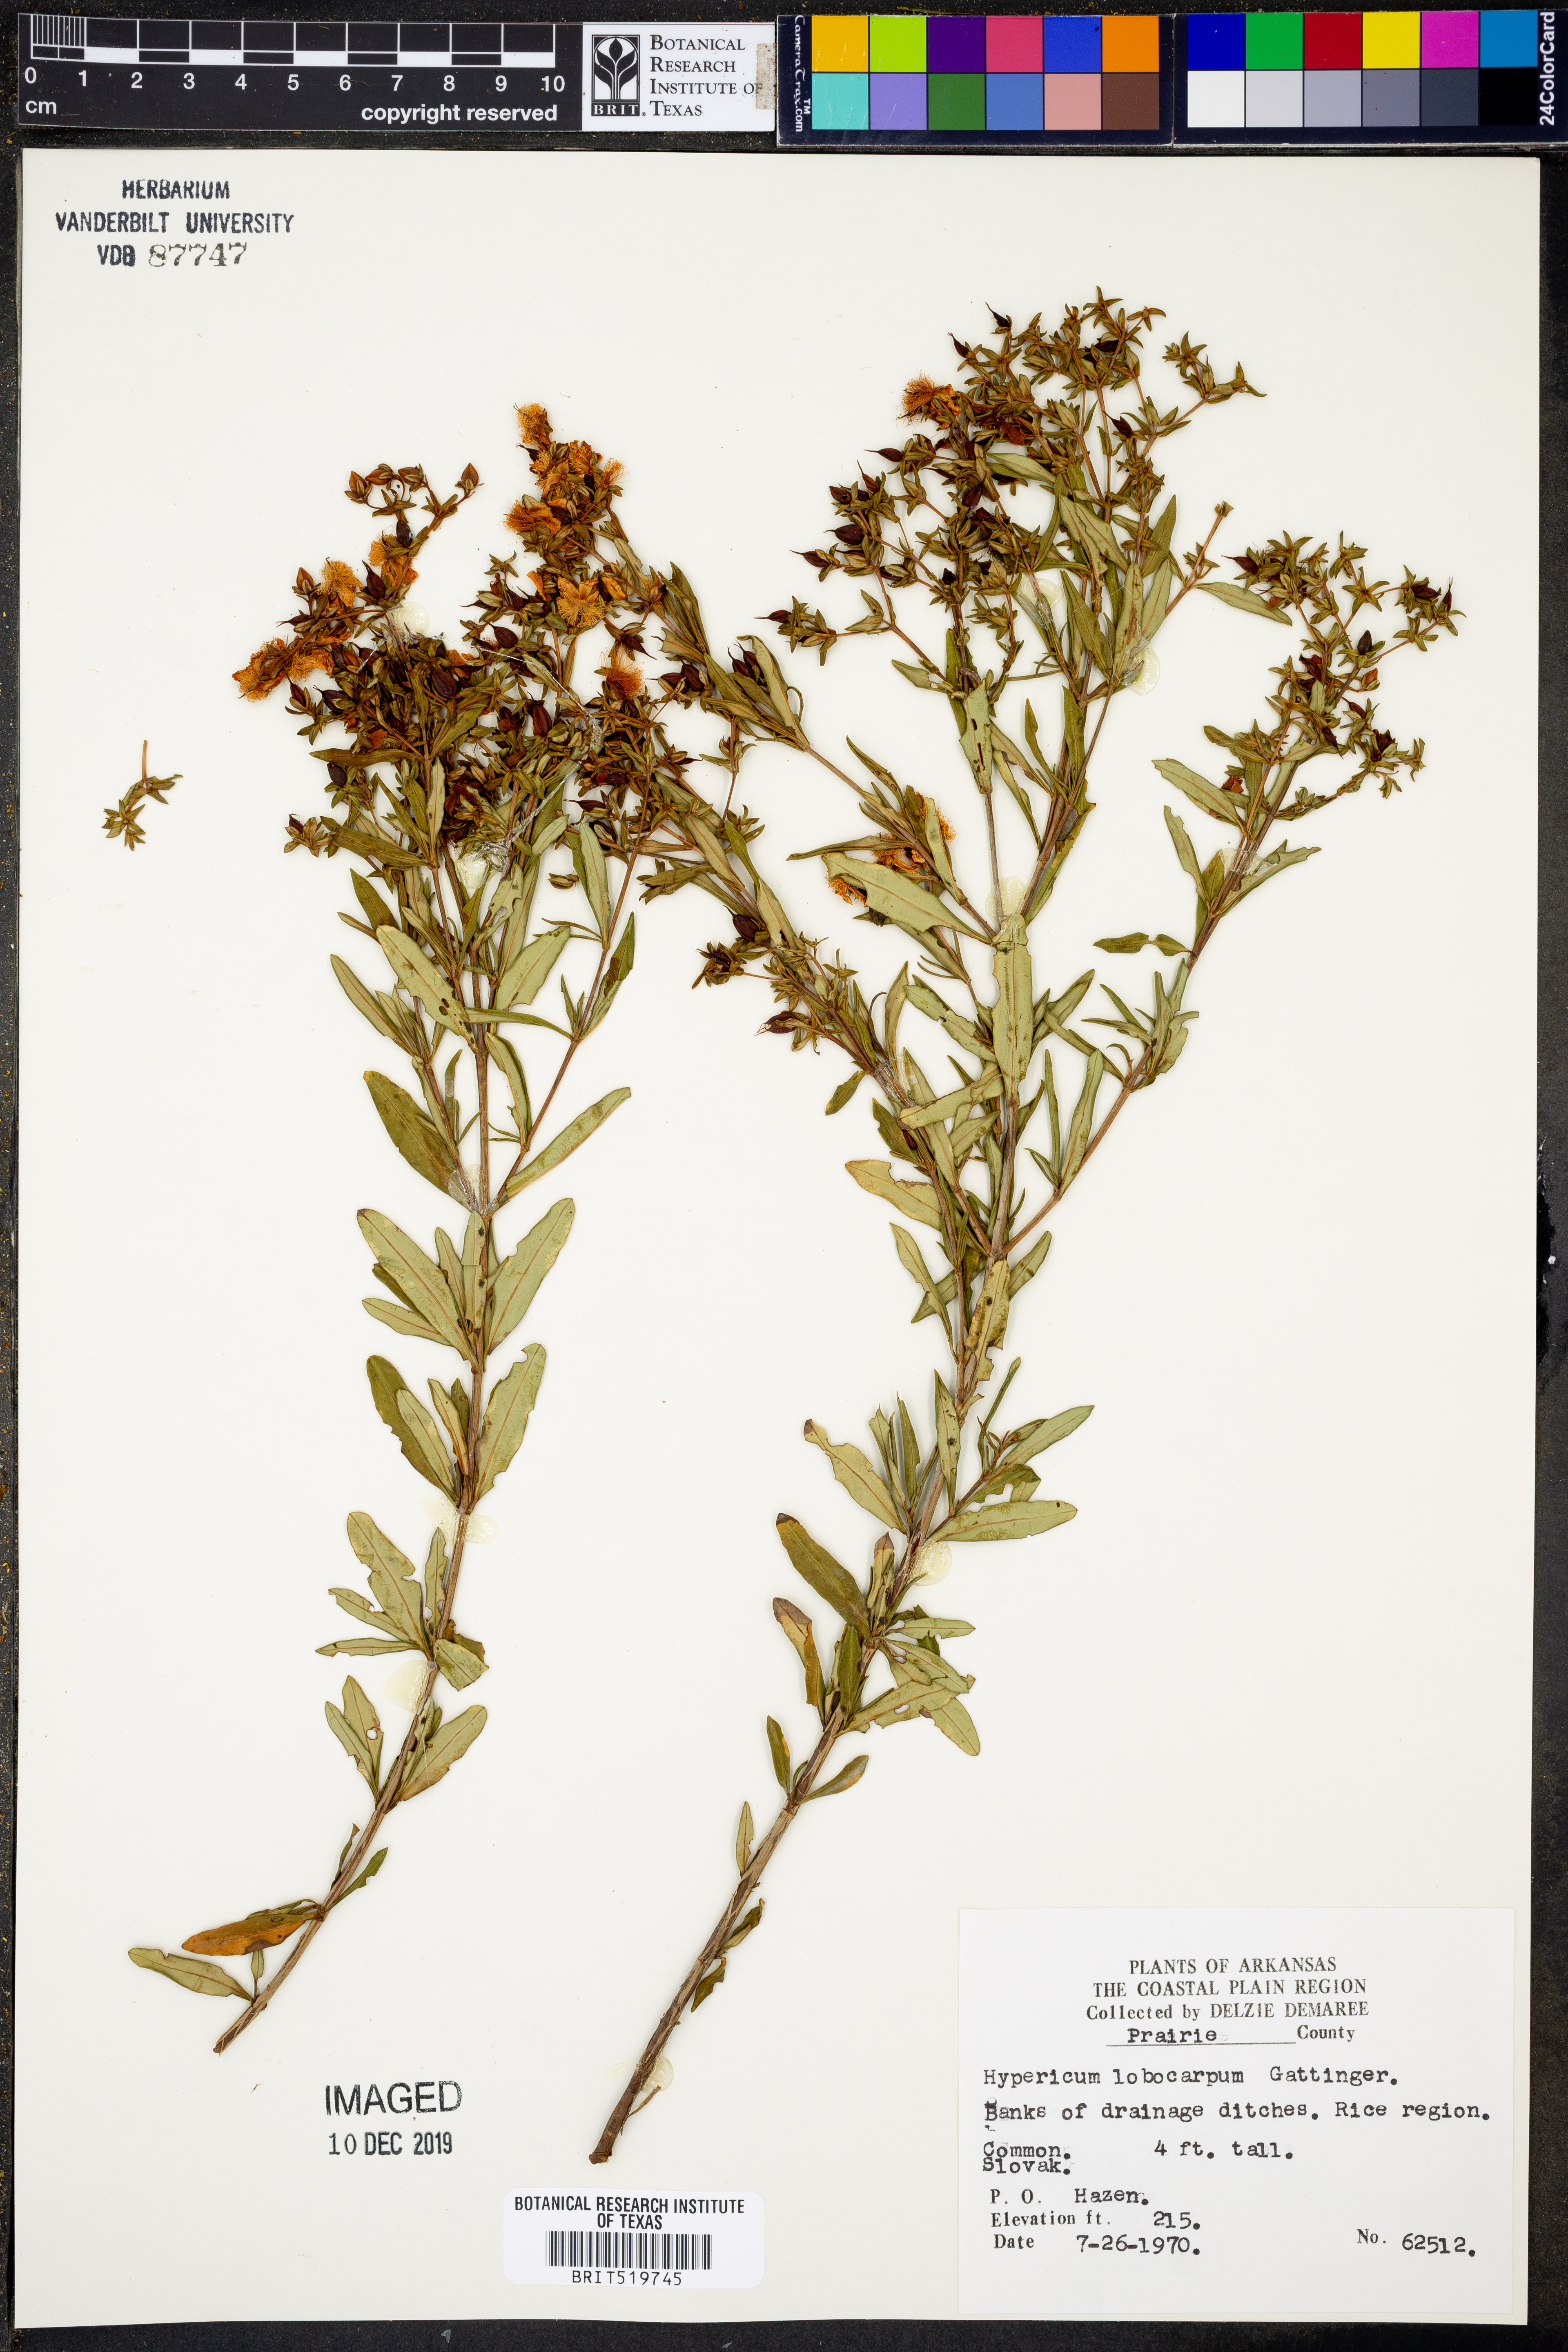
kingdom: Plantae
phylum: Tracheophyta
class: Magnoliopsida
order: Malpighiales
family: Hypericaceae
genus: Hypericum
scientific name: Hypericum lobocarpum
